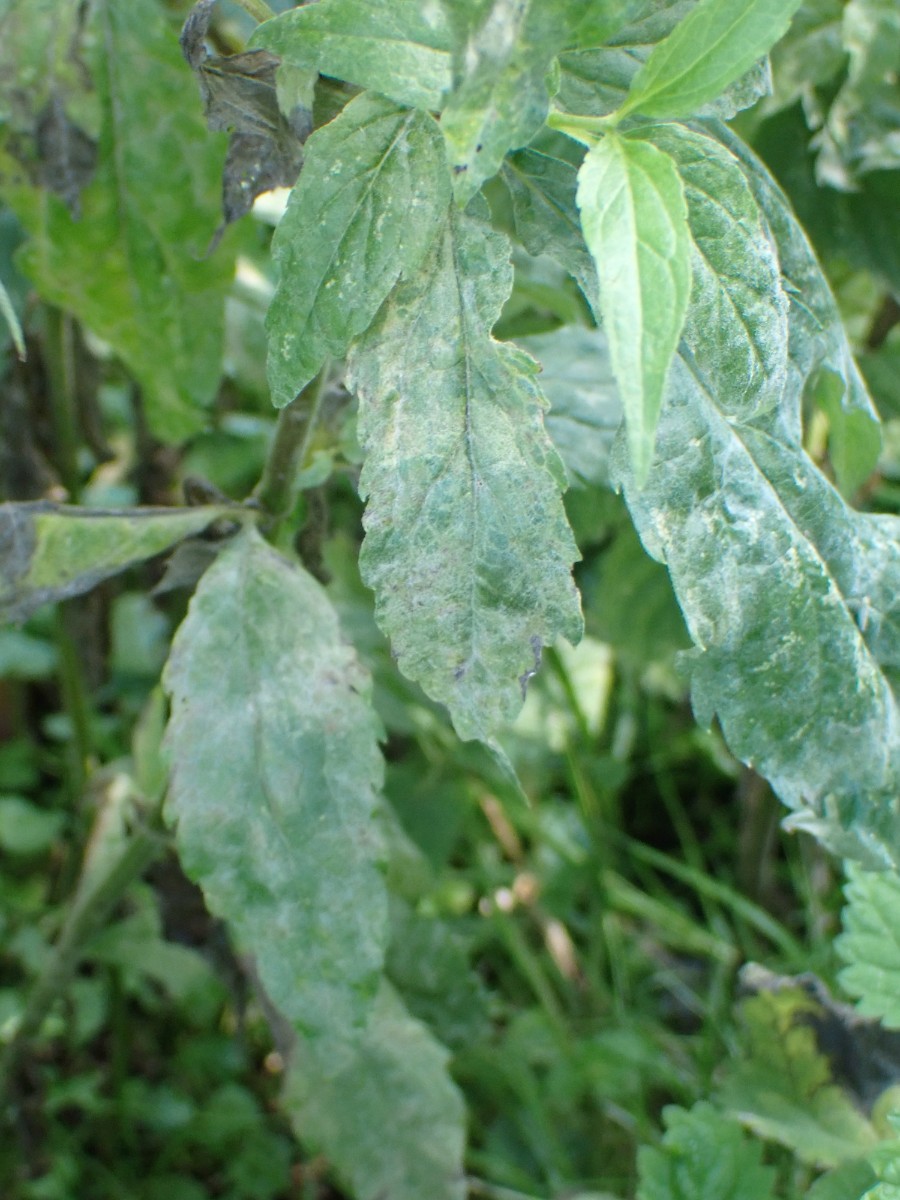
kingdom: Fungi
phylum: Ascomycota
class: Leotiomycetes
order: Helotiales
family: Erysiphaceae
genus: Golovinomyces
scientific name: Golovinomyces circumfusus
